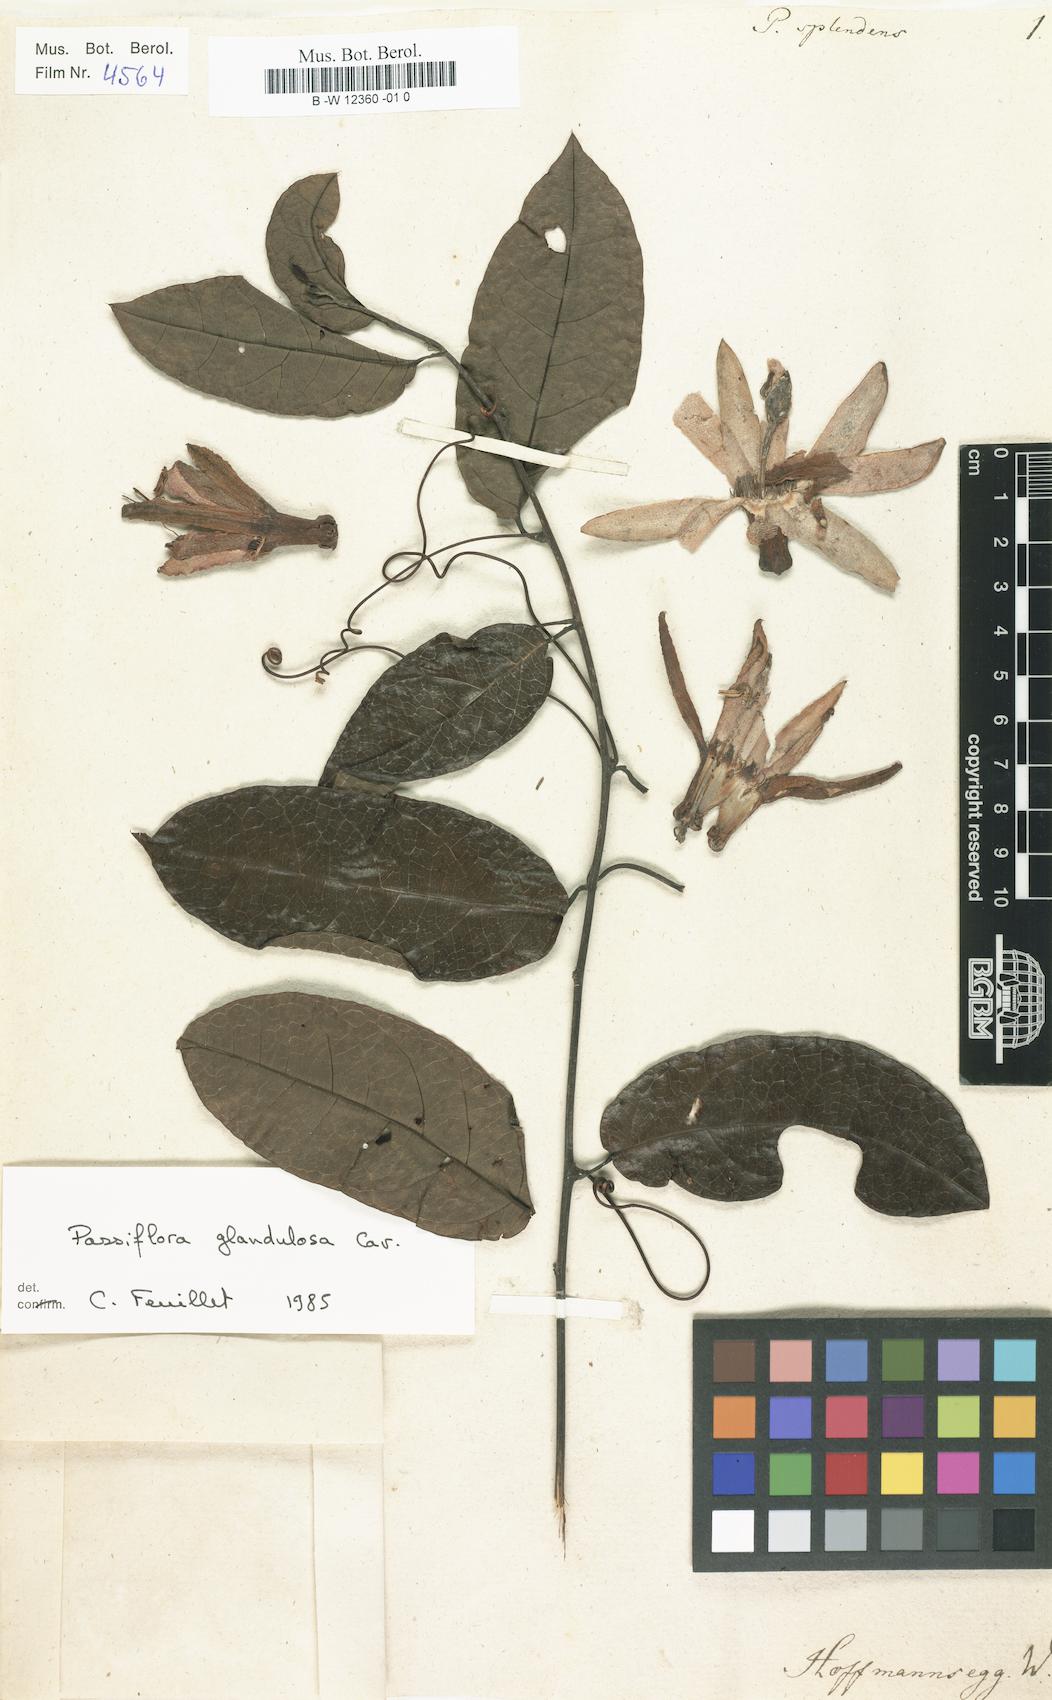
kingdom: Plantae
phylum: Tracheophyta
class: Magnoliopsida
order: Malpighiales
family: Passifloraceae
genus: Passiflora
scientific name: Passiflora manicata
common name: Red passionflower
